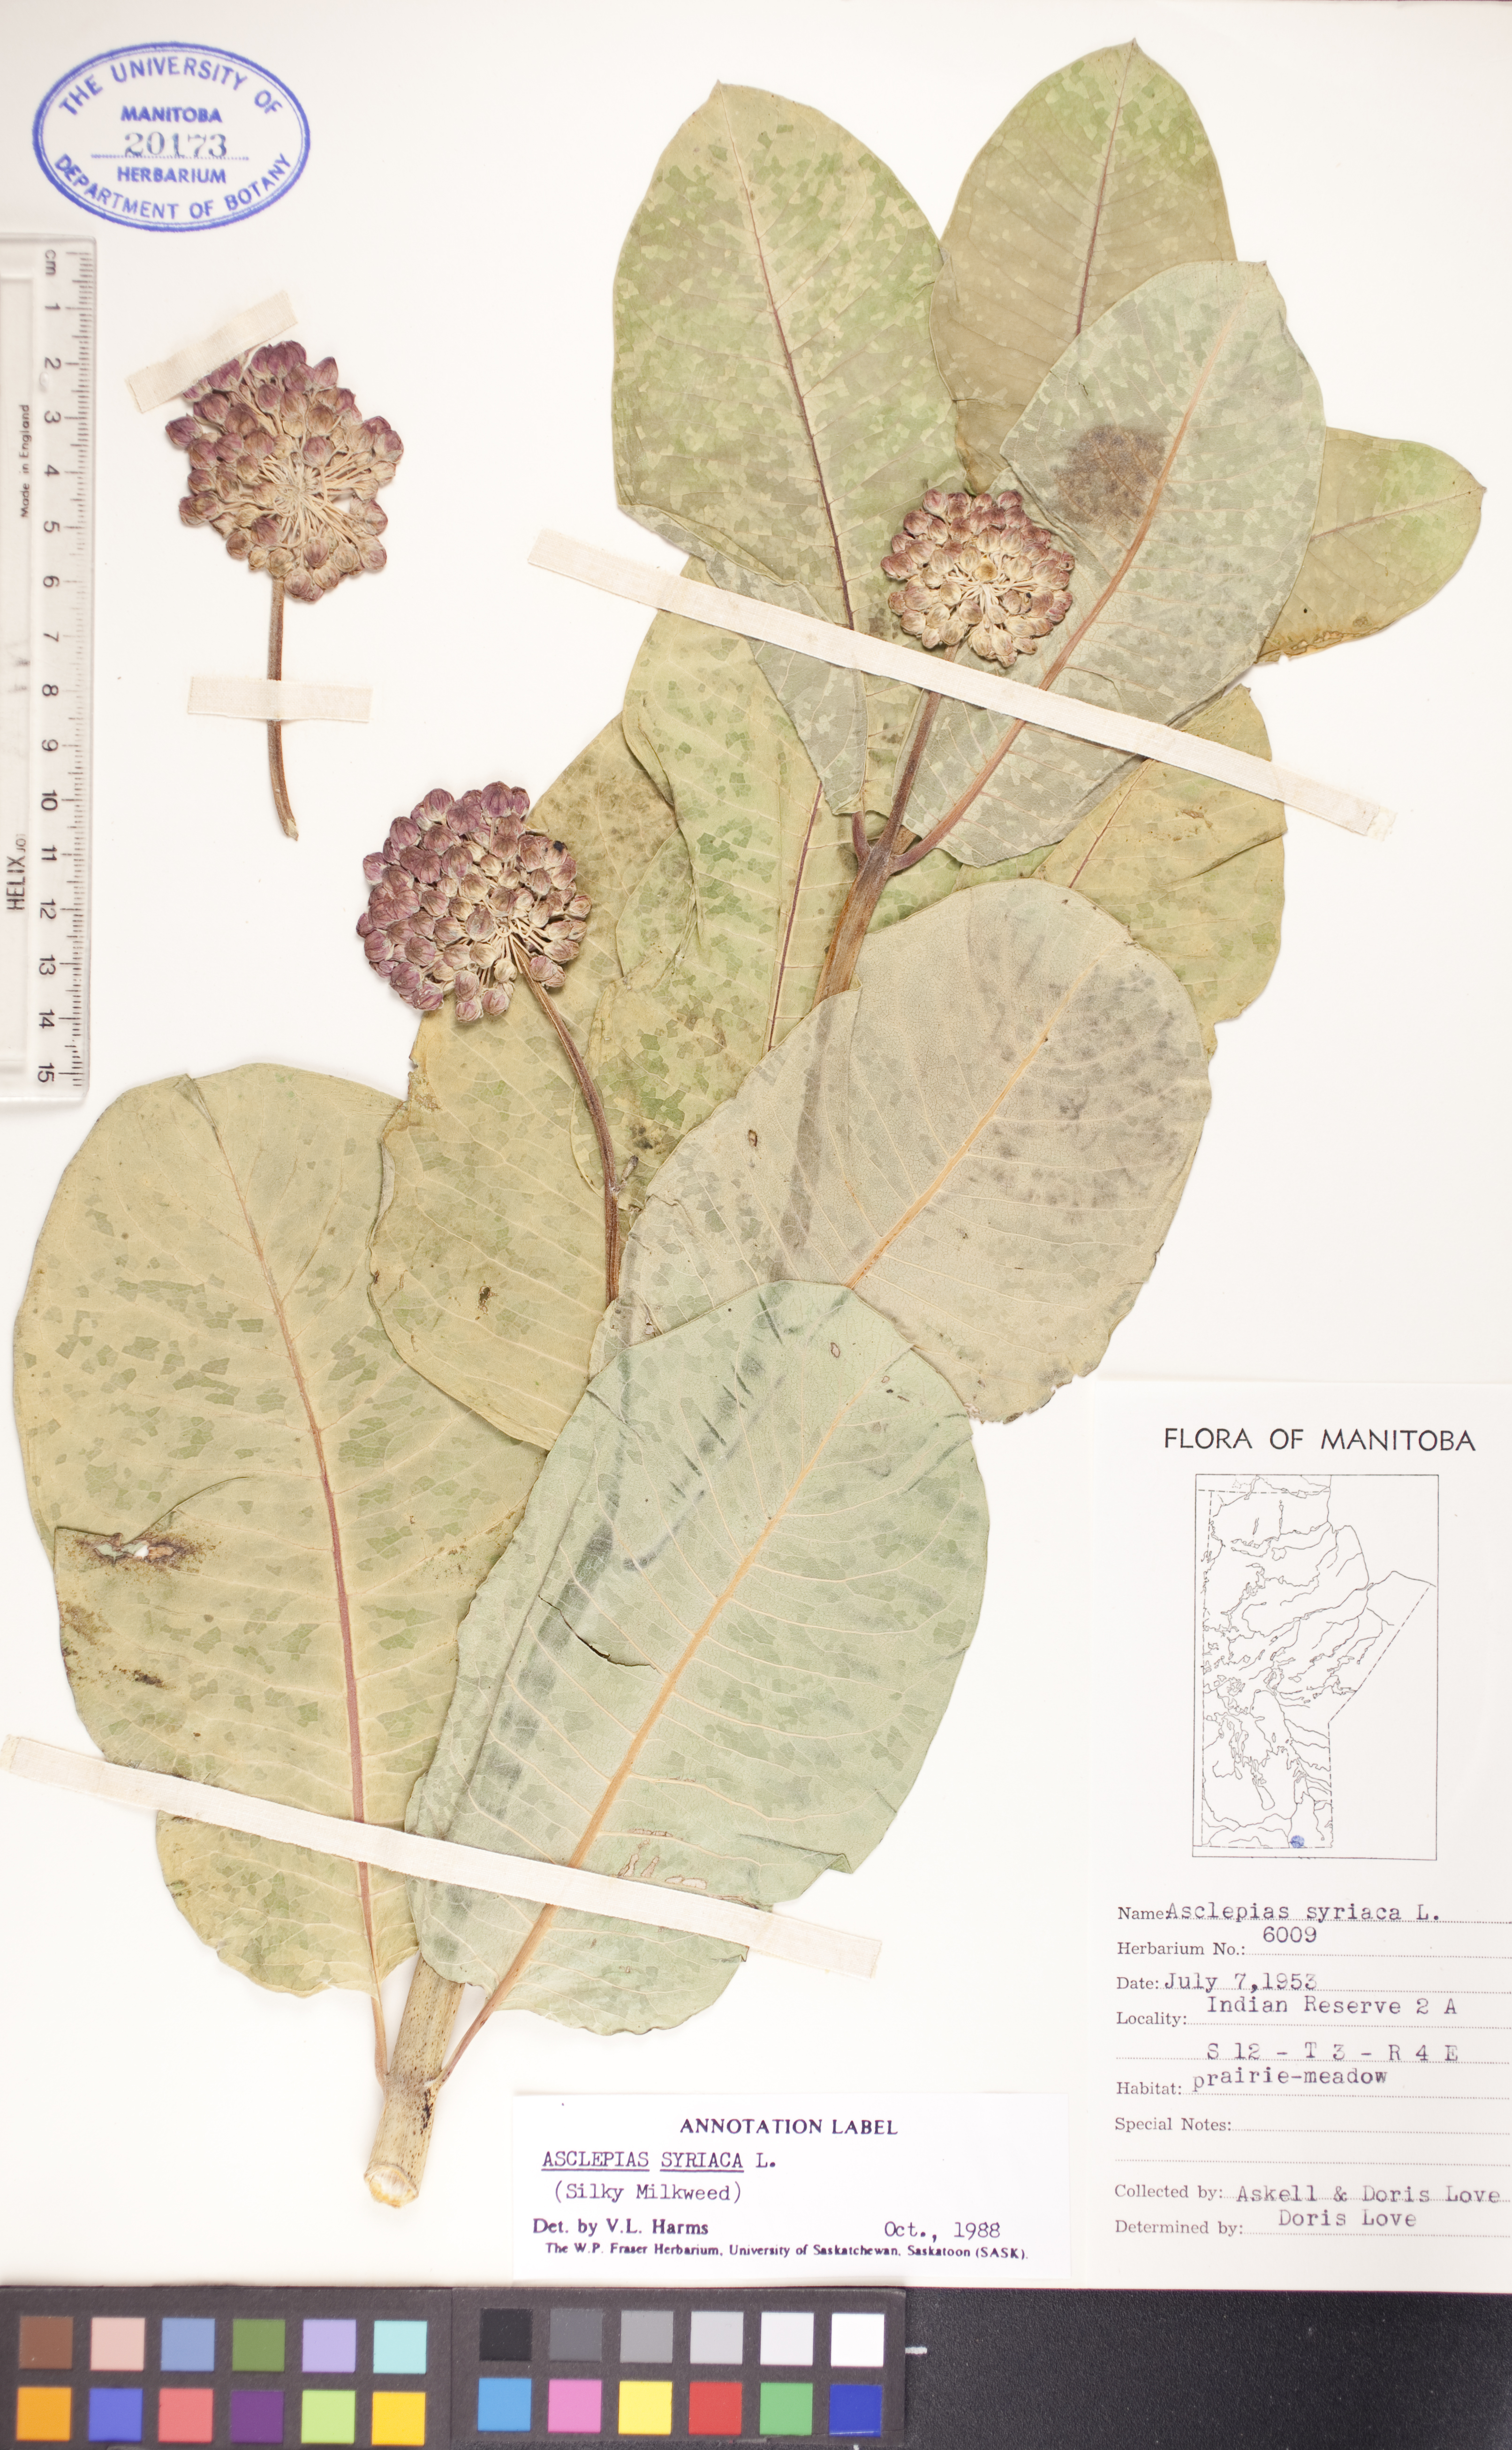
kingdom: Plantae
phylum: Tracheophyta
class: Magnoliopsida
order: Gentianales
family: Apocynaceae
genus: Asclepias
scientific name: Asclepias syriaca
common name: Common milkweed
